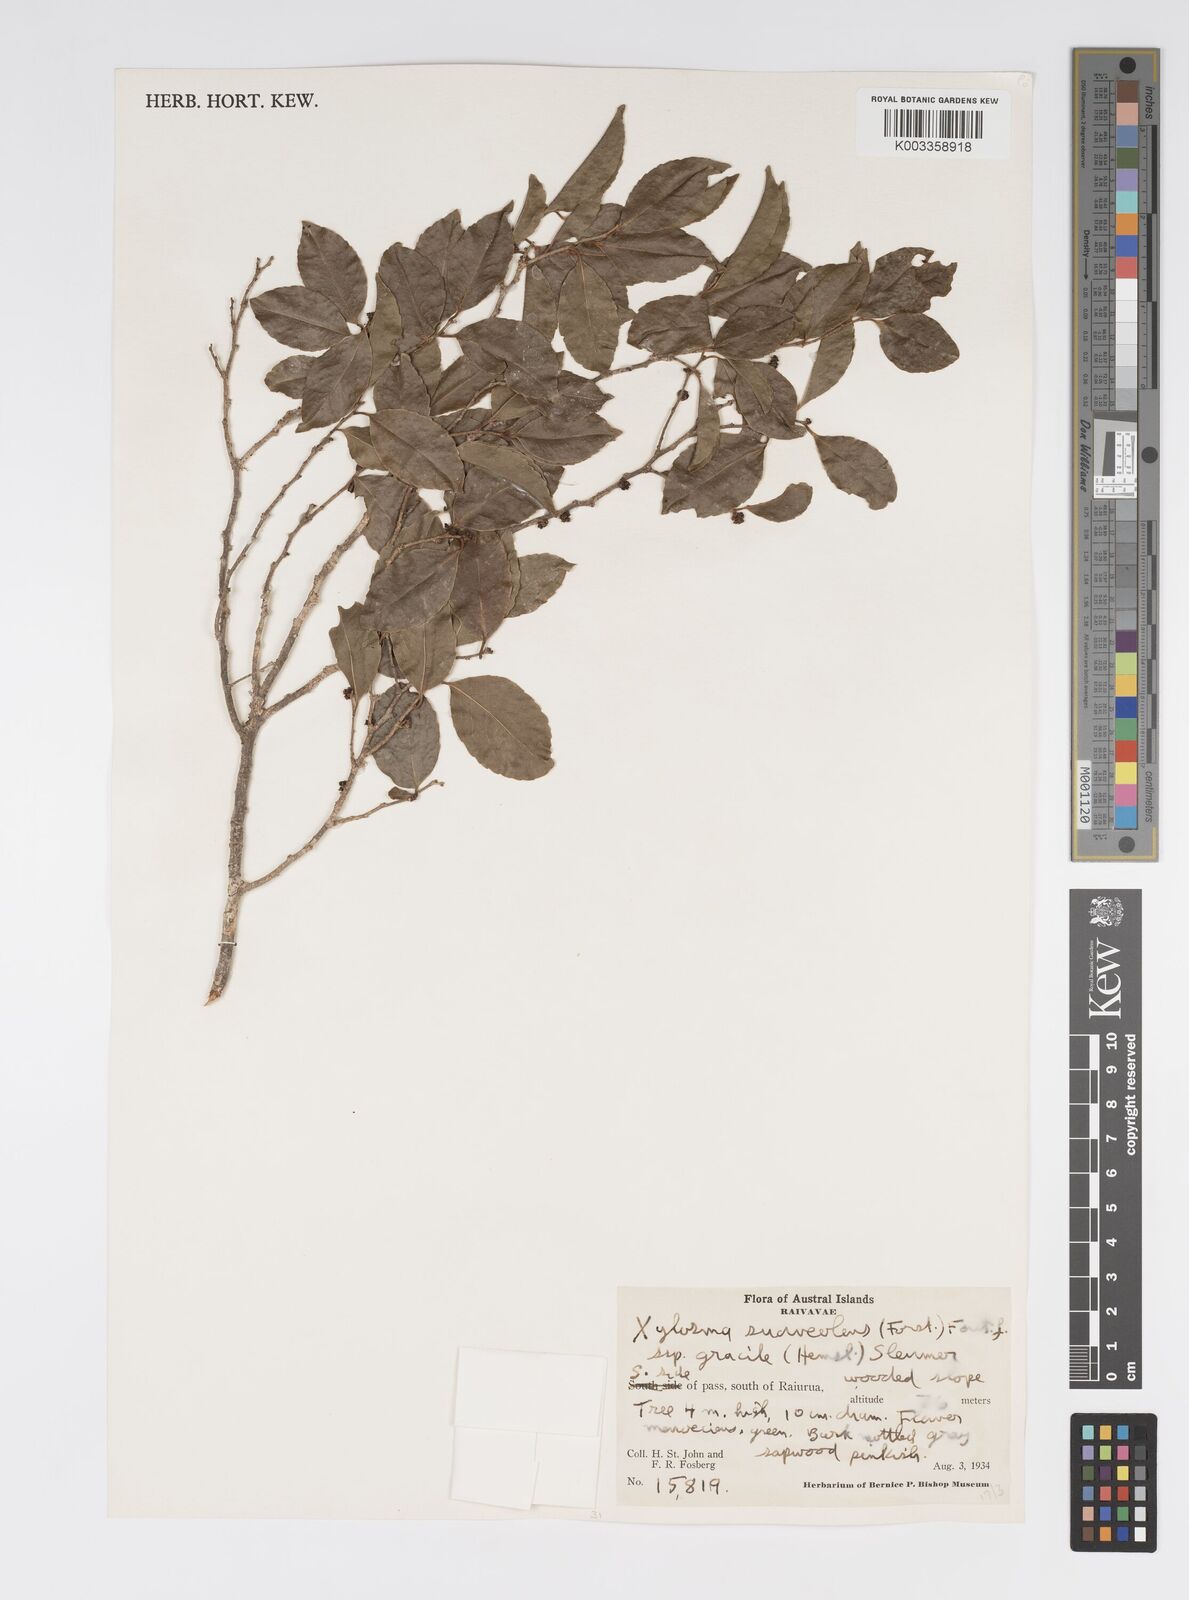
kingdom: Plantae
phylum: Tracheophyta
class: Magnoliopsida
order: Malpighiales
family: Salicaceae
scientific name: Salicaceae
